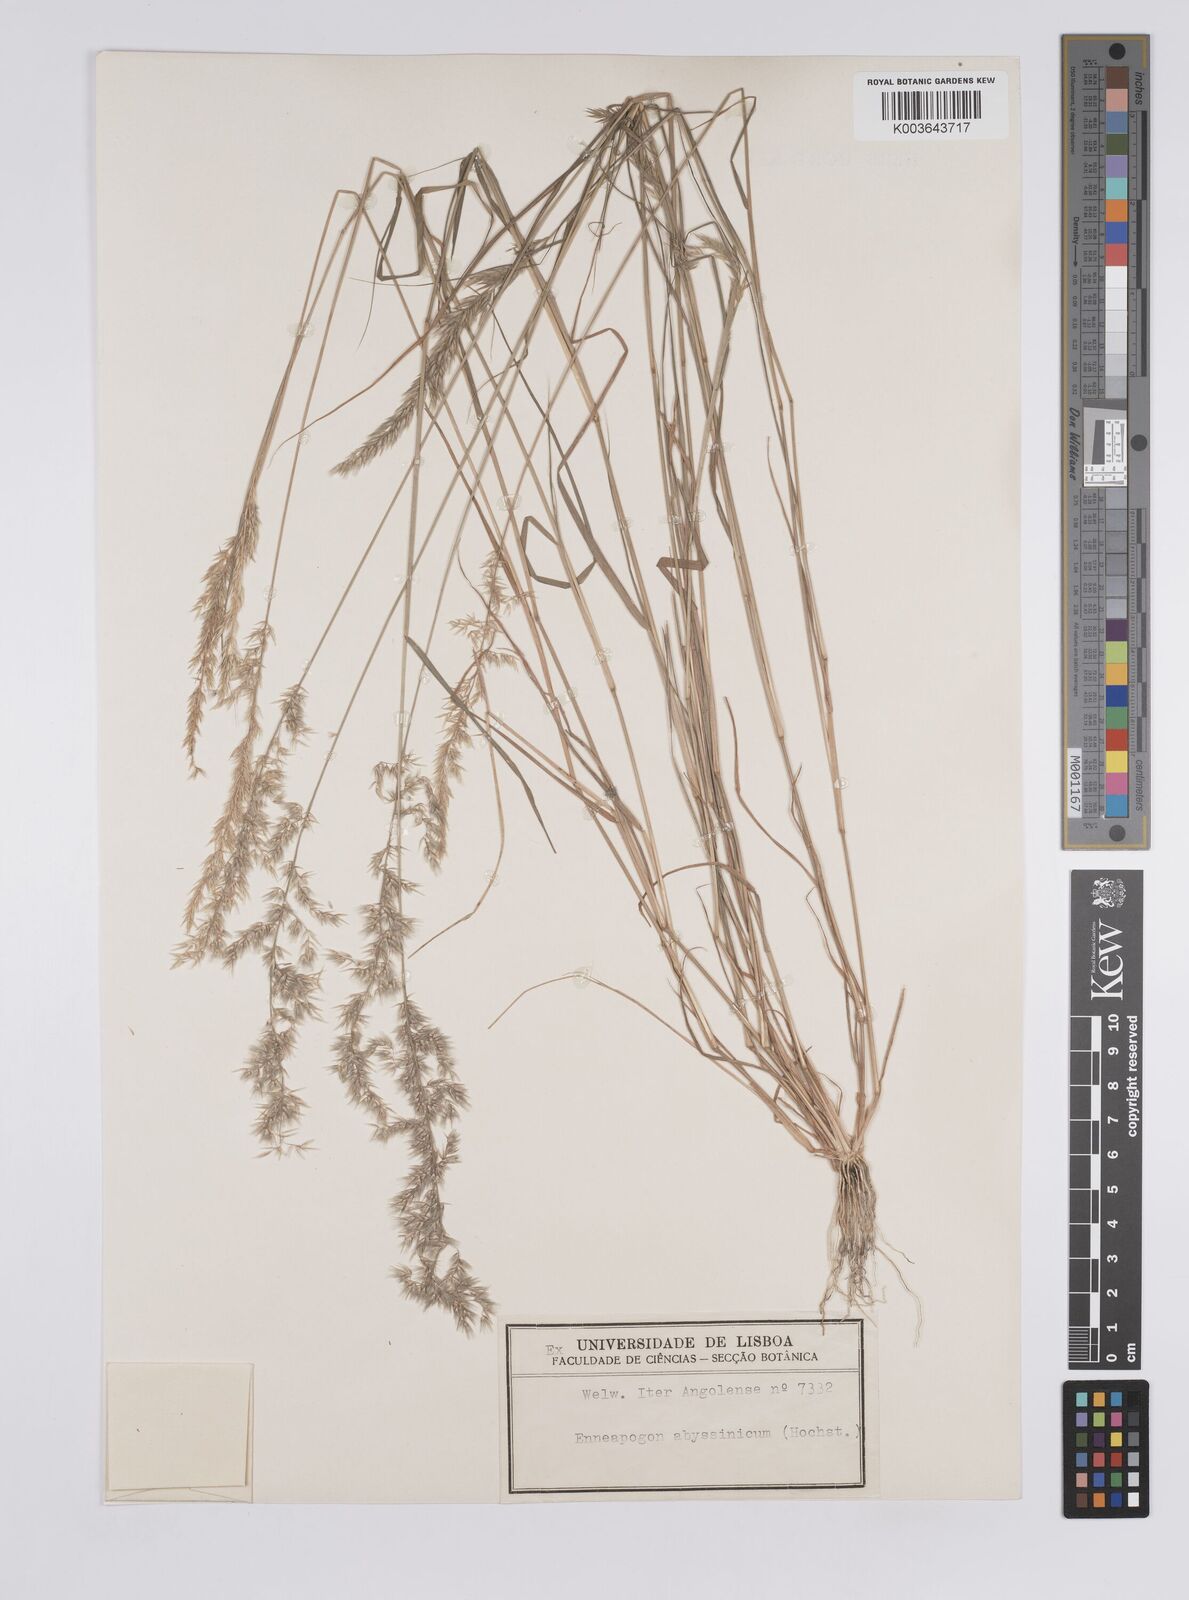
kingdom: Plantae
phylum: Tracheophyta
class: Liliopsida
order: Poales
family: Poaceae
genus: Enneapogon
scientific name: Enneapogon cenchroides
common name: Soft feather pappusgrass
